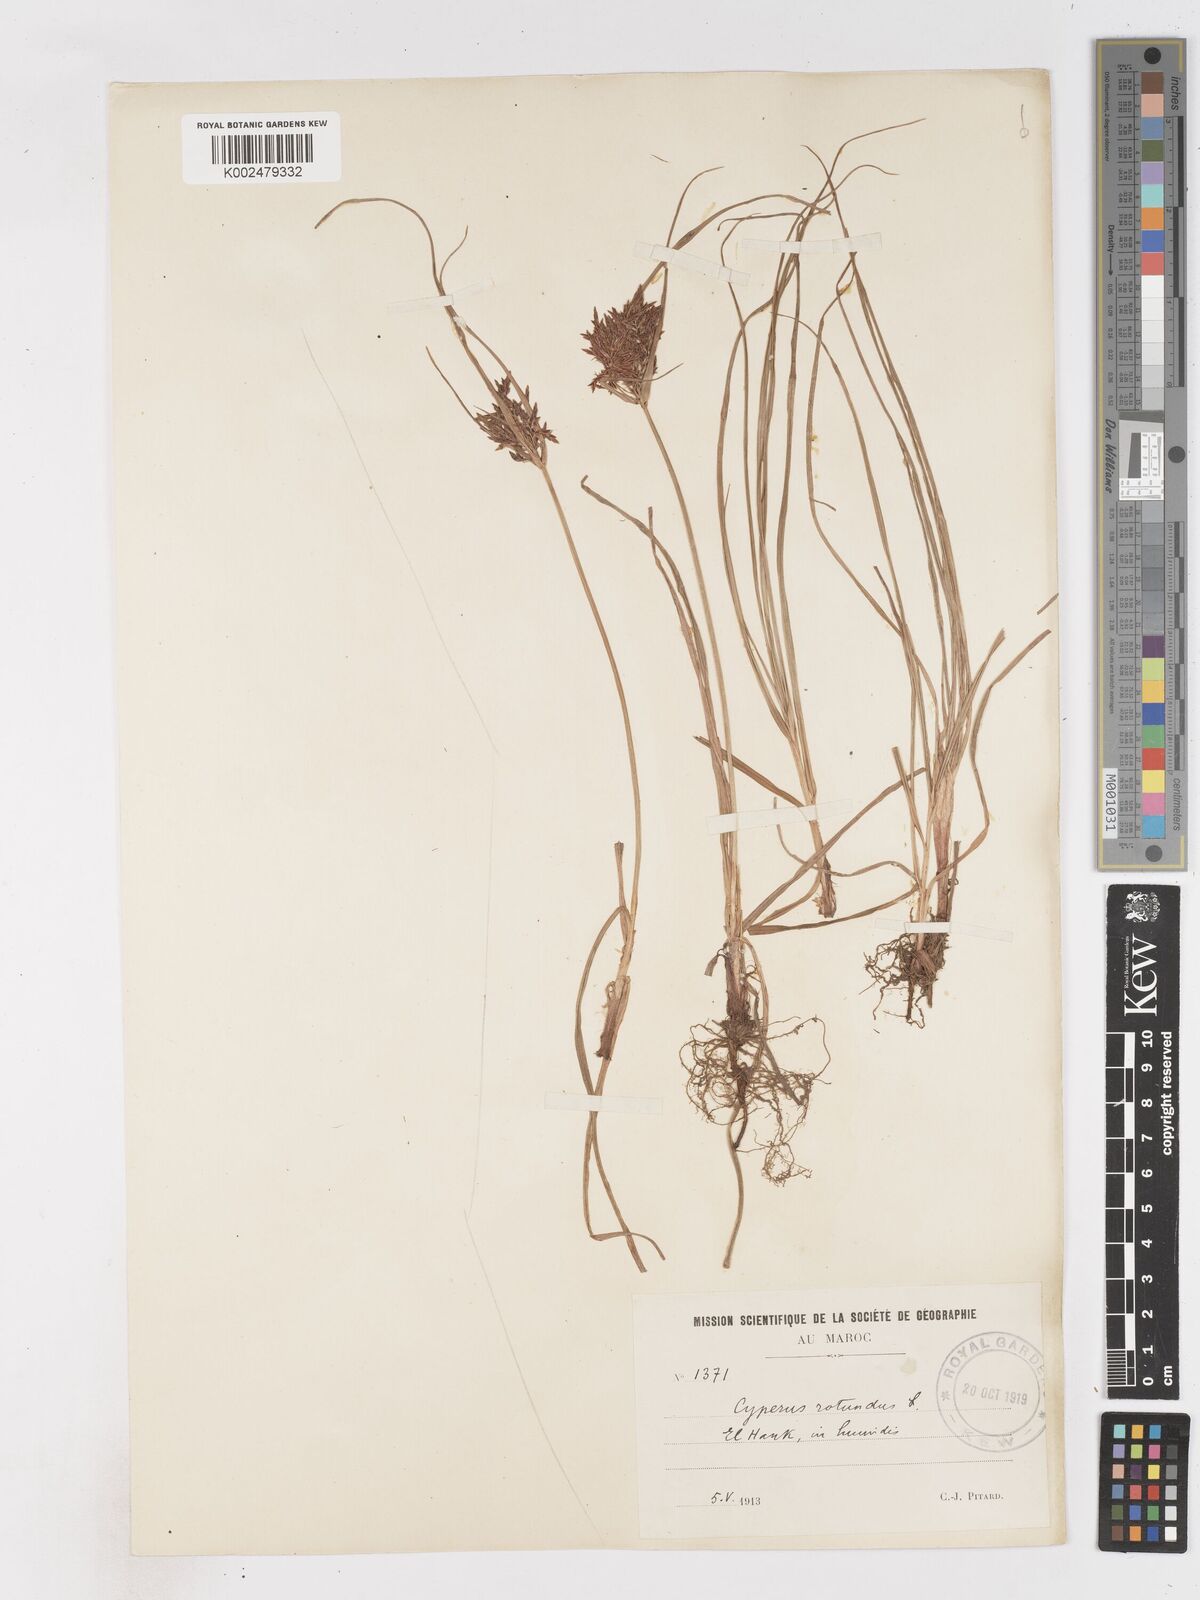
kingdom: Plantae
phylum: Tracheophyta
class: Liliopsida
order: Poales
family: Cyperaceae
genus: Cyperus
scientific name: Cyperus rotundus
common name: Nutgrass
